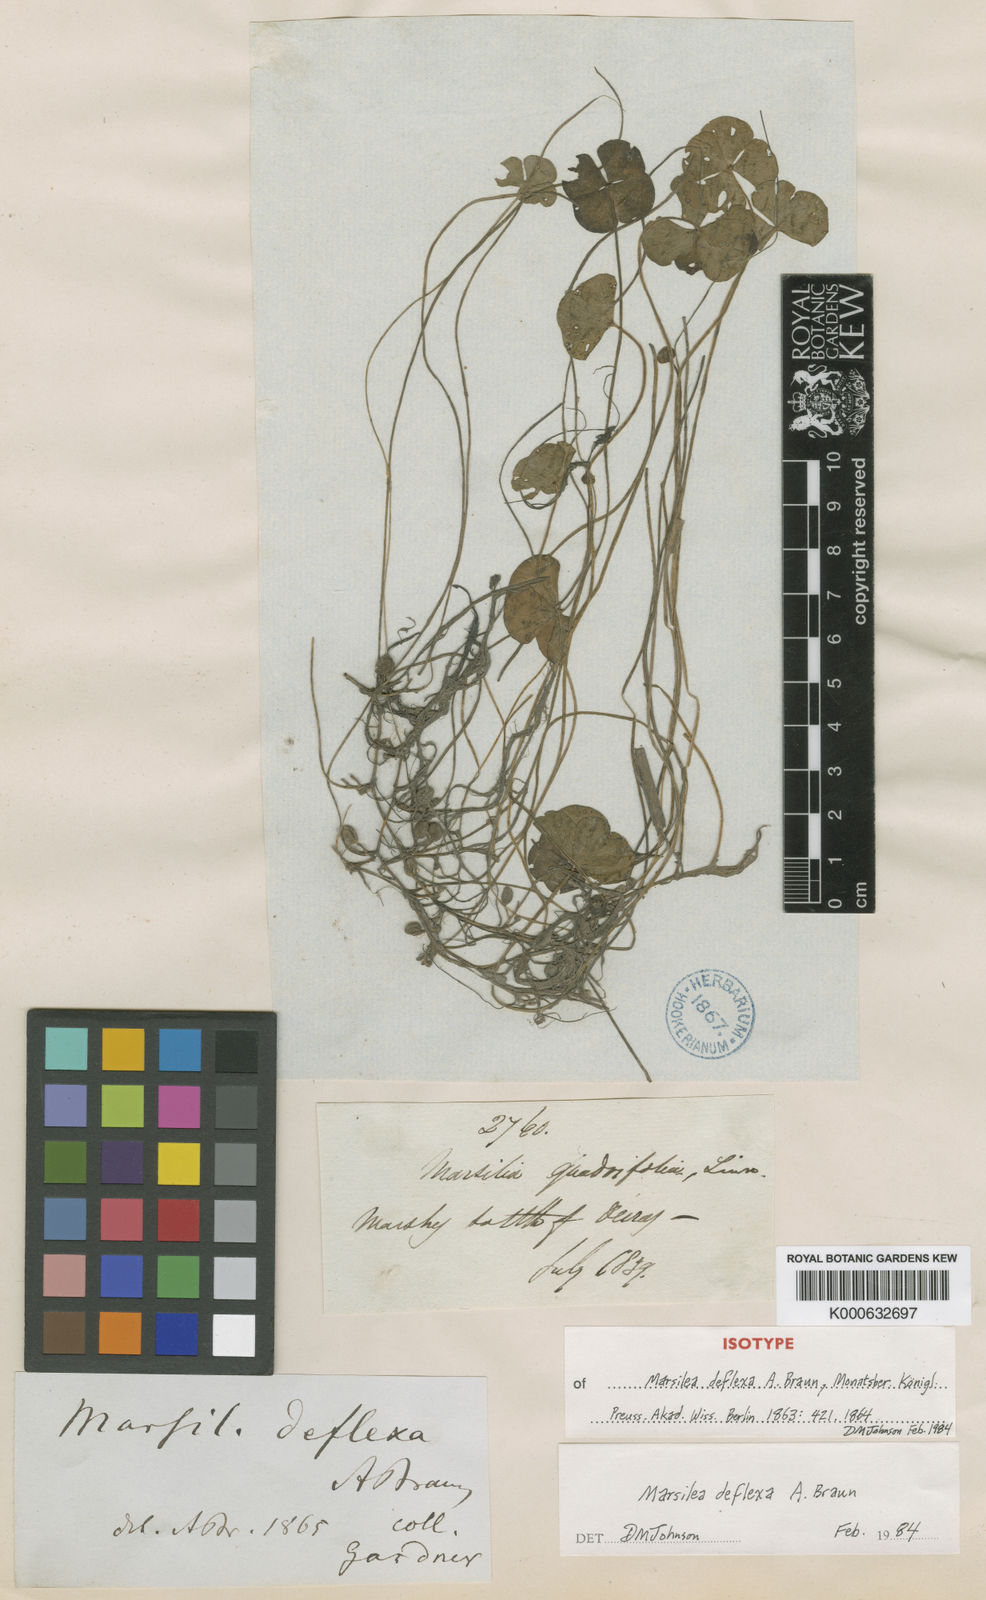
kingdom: Plantae
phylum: Tracheophyta
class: Polypodiopsida
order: Salviniales
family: Marsileaceae
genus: Marsilea
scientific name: Marsilea deflexa
